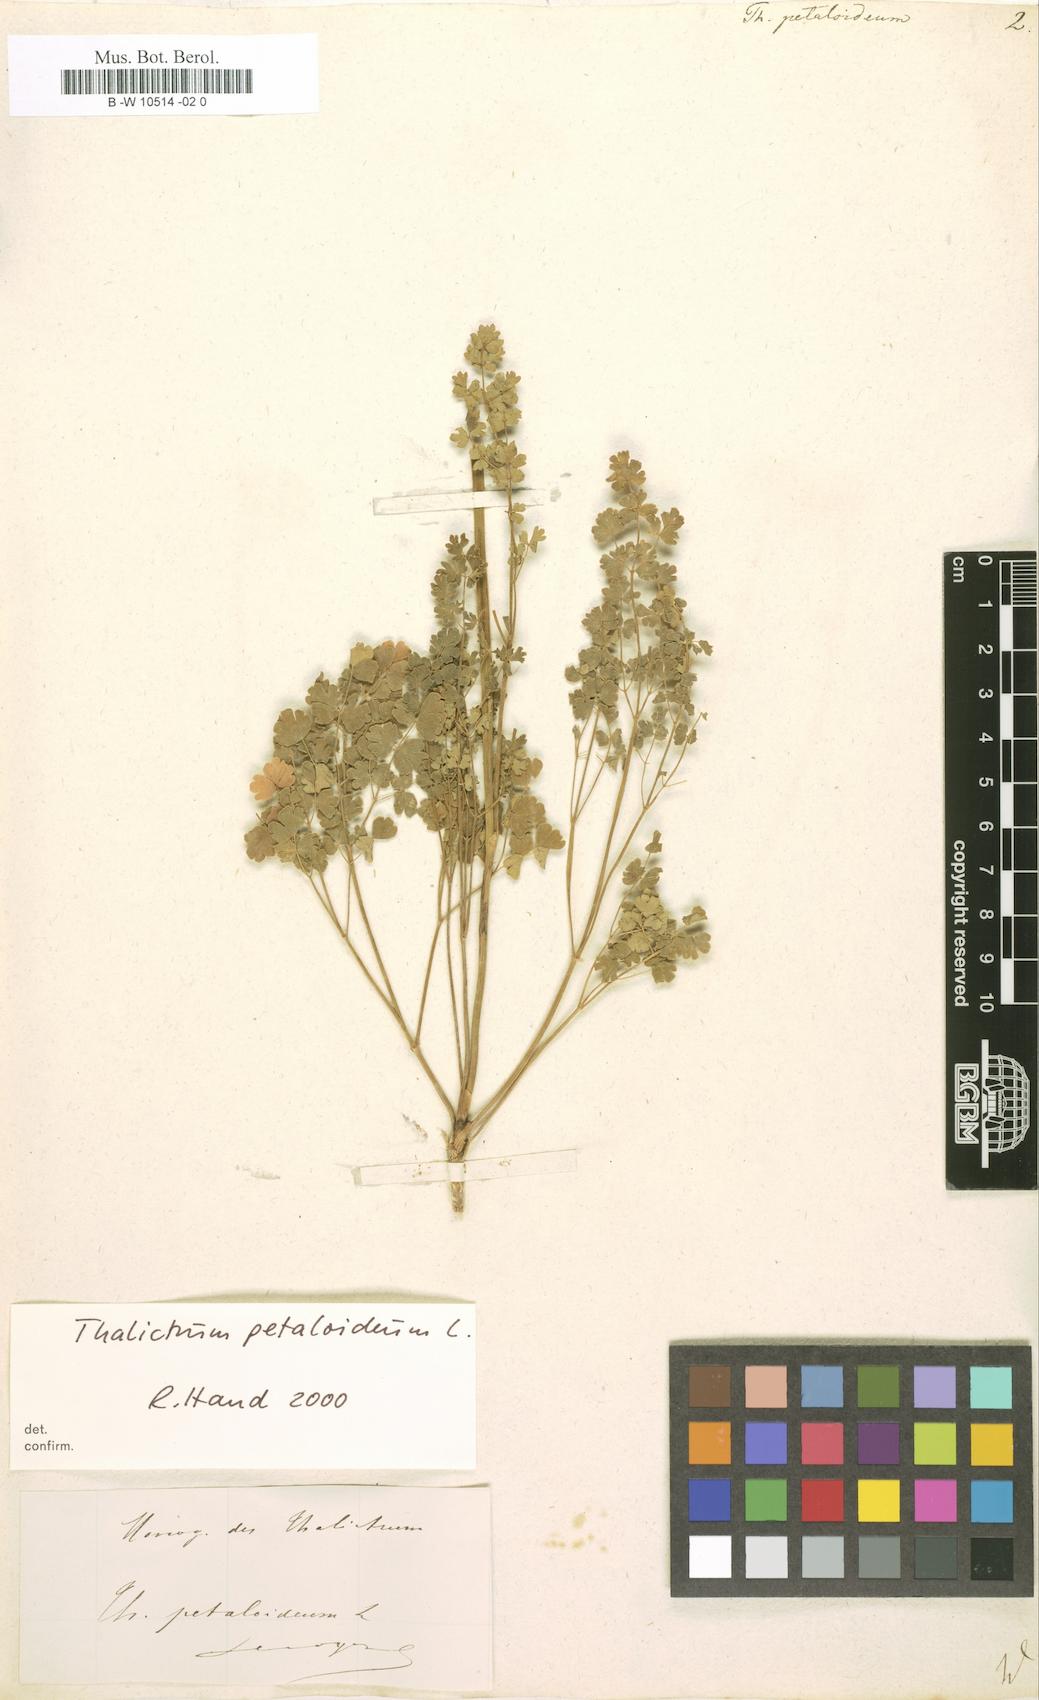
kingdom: Plantae
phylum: Tracheophyta
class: Magnoliopsida
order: Ranunculales
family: Ranunculaceae
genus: Thalictrum
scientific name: Thalictrum petaloideum
